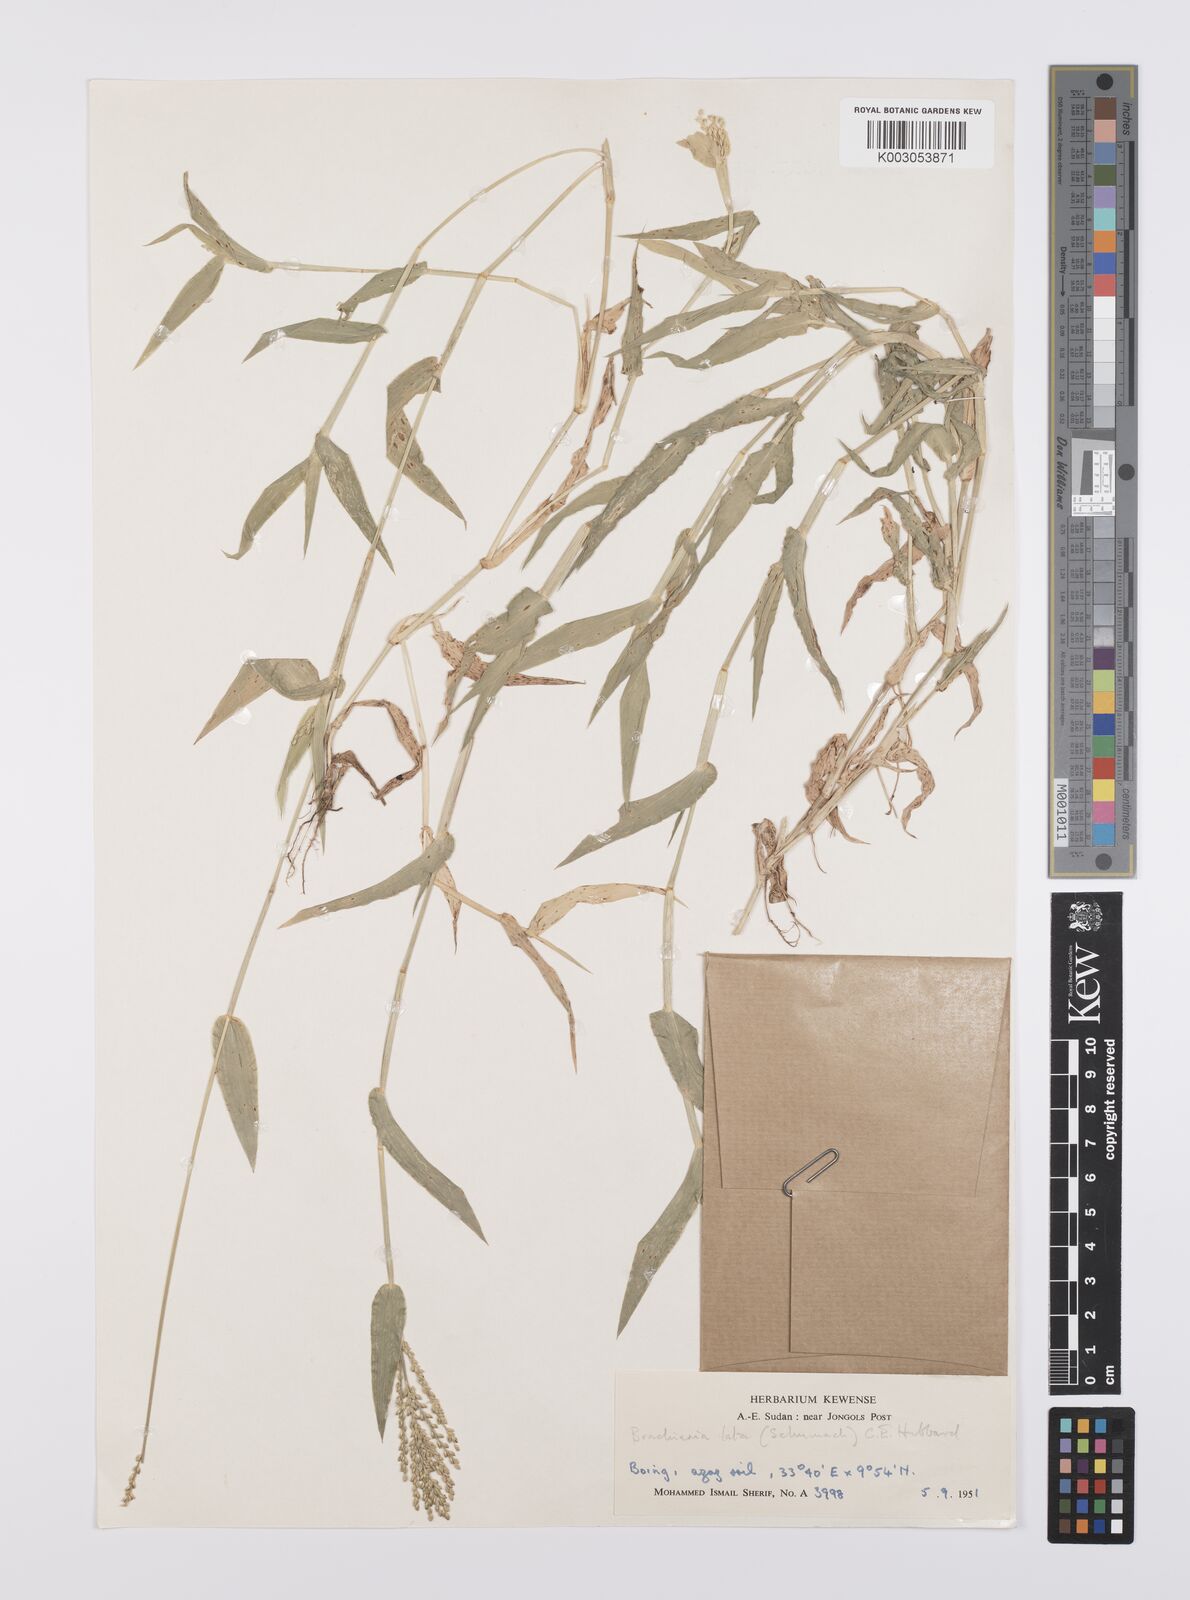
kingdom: Plantae
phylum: Tracheophyta
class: Liliopsida
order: Poales
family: Poaceae
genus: Urochloa
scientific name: Urochloa reptans
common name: Sprawling signalgrass
